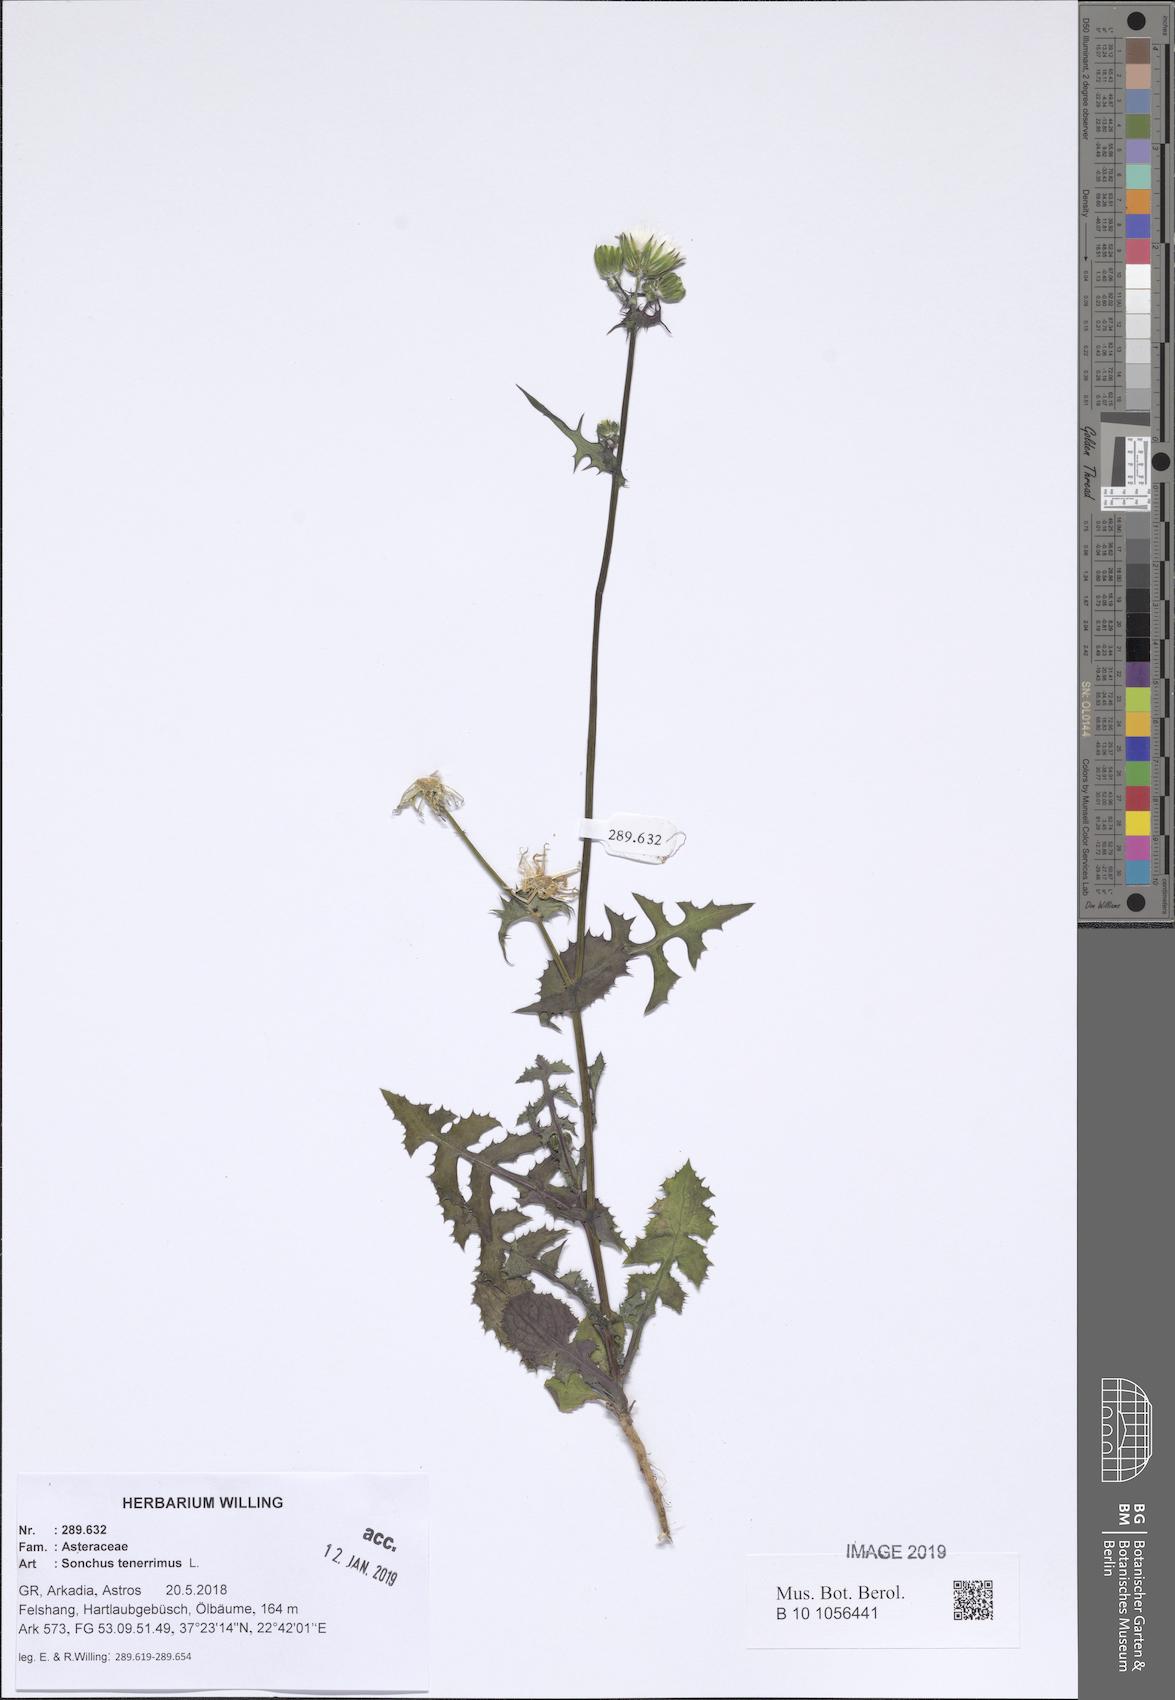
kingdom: Plantae
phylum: Tracheophyta
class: Magnoliopsida
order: Asterales
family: Asteraceae
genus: Sonchus
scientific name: Sonchus tenerrimus
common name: Clammy sowthistle
